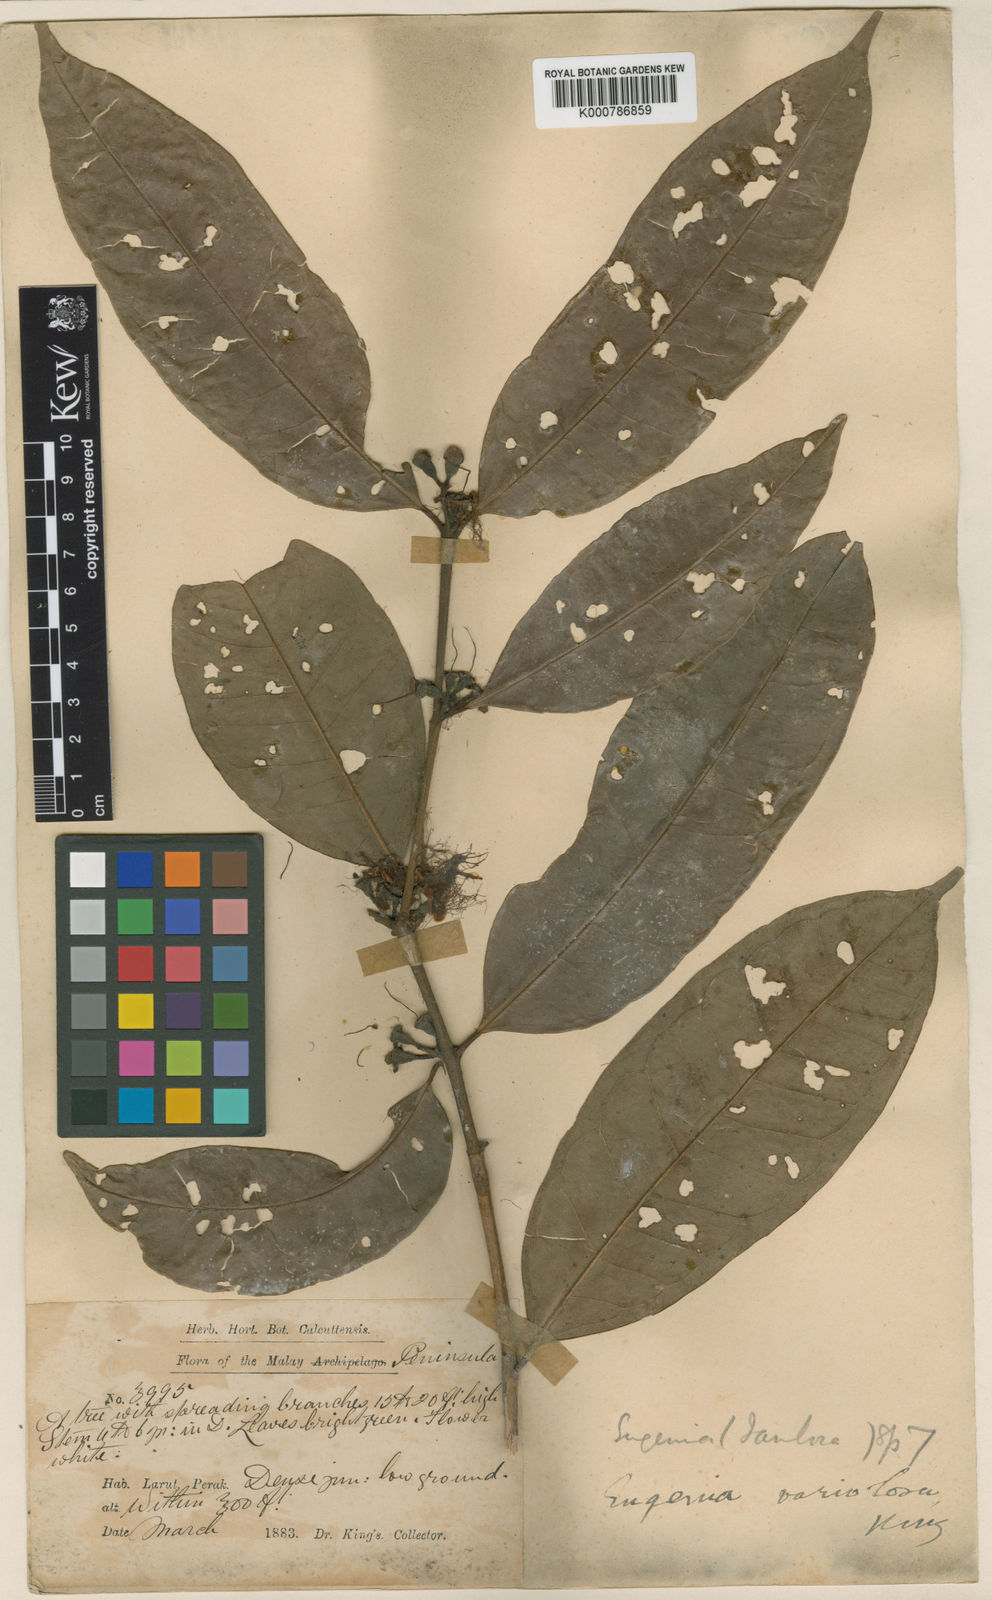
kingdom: Plantae
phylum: Tracheophyta
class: Magnoliopsida
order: Myrtales
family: Myrtaceae
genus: Syzygium
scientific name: Syzygium variolosum
